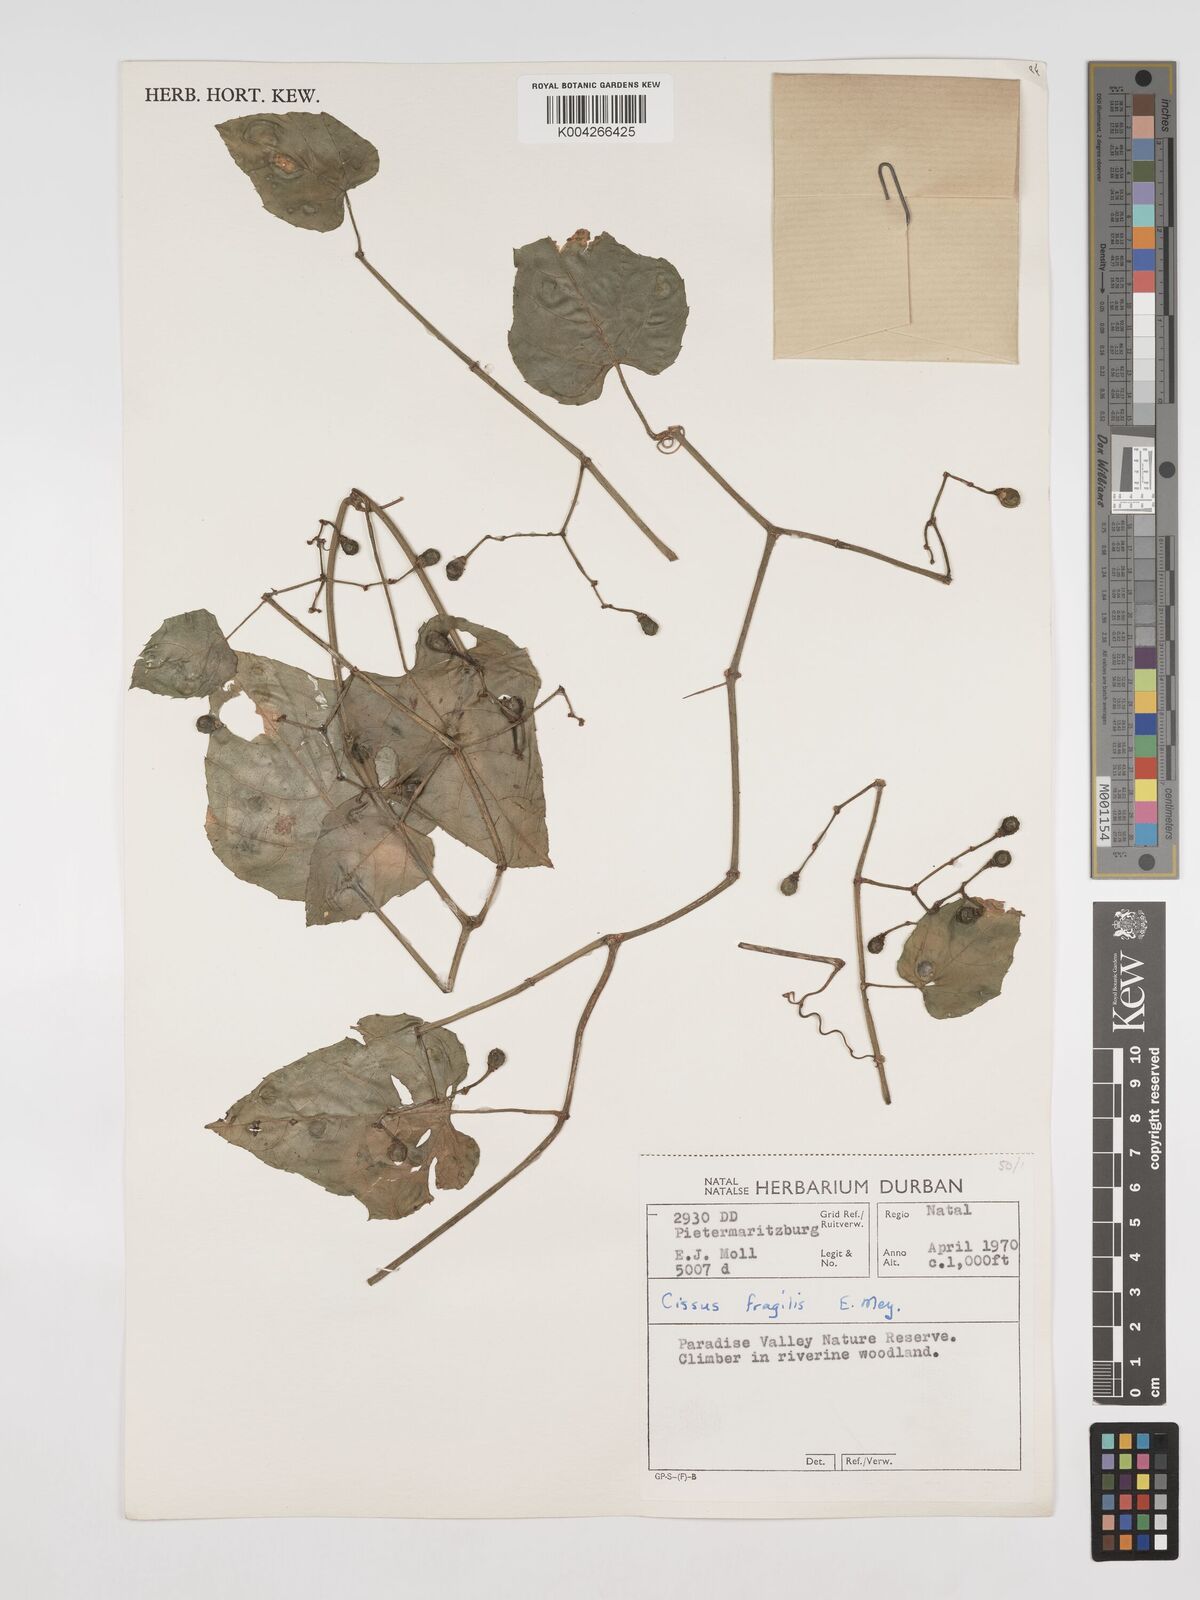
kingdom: Plantae
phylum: Tracheophyta
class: Magnoliopsida
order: Vitales
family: Vitaceae
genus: Cissus
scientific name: Cissus fragilis
